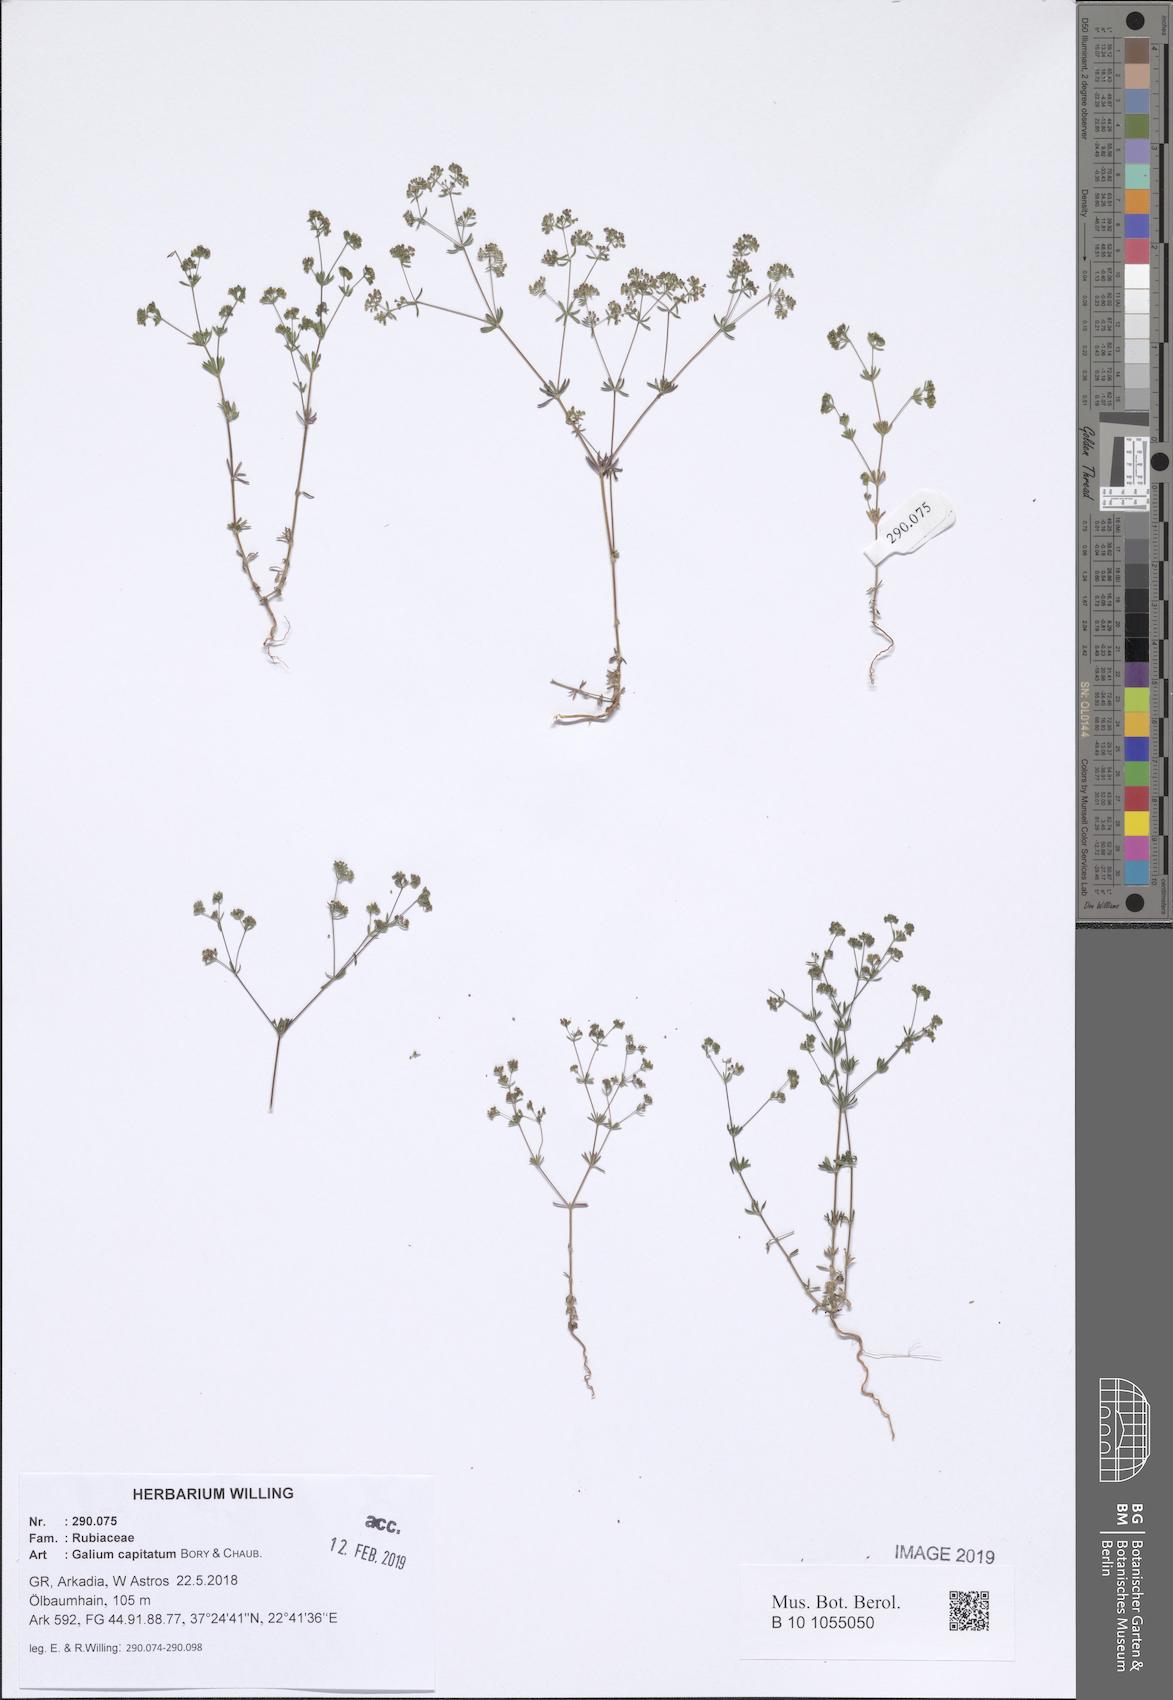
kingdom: Plantae
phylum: Tracheophyta
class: Magnoliopsida
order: Gentianales
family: Rubiaceae
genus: Galium
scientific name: Galium capitatum
